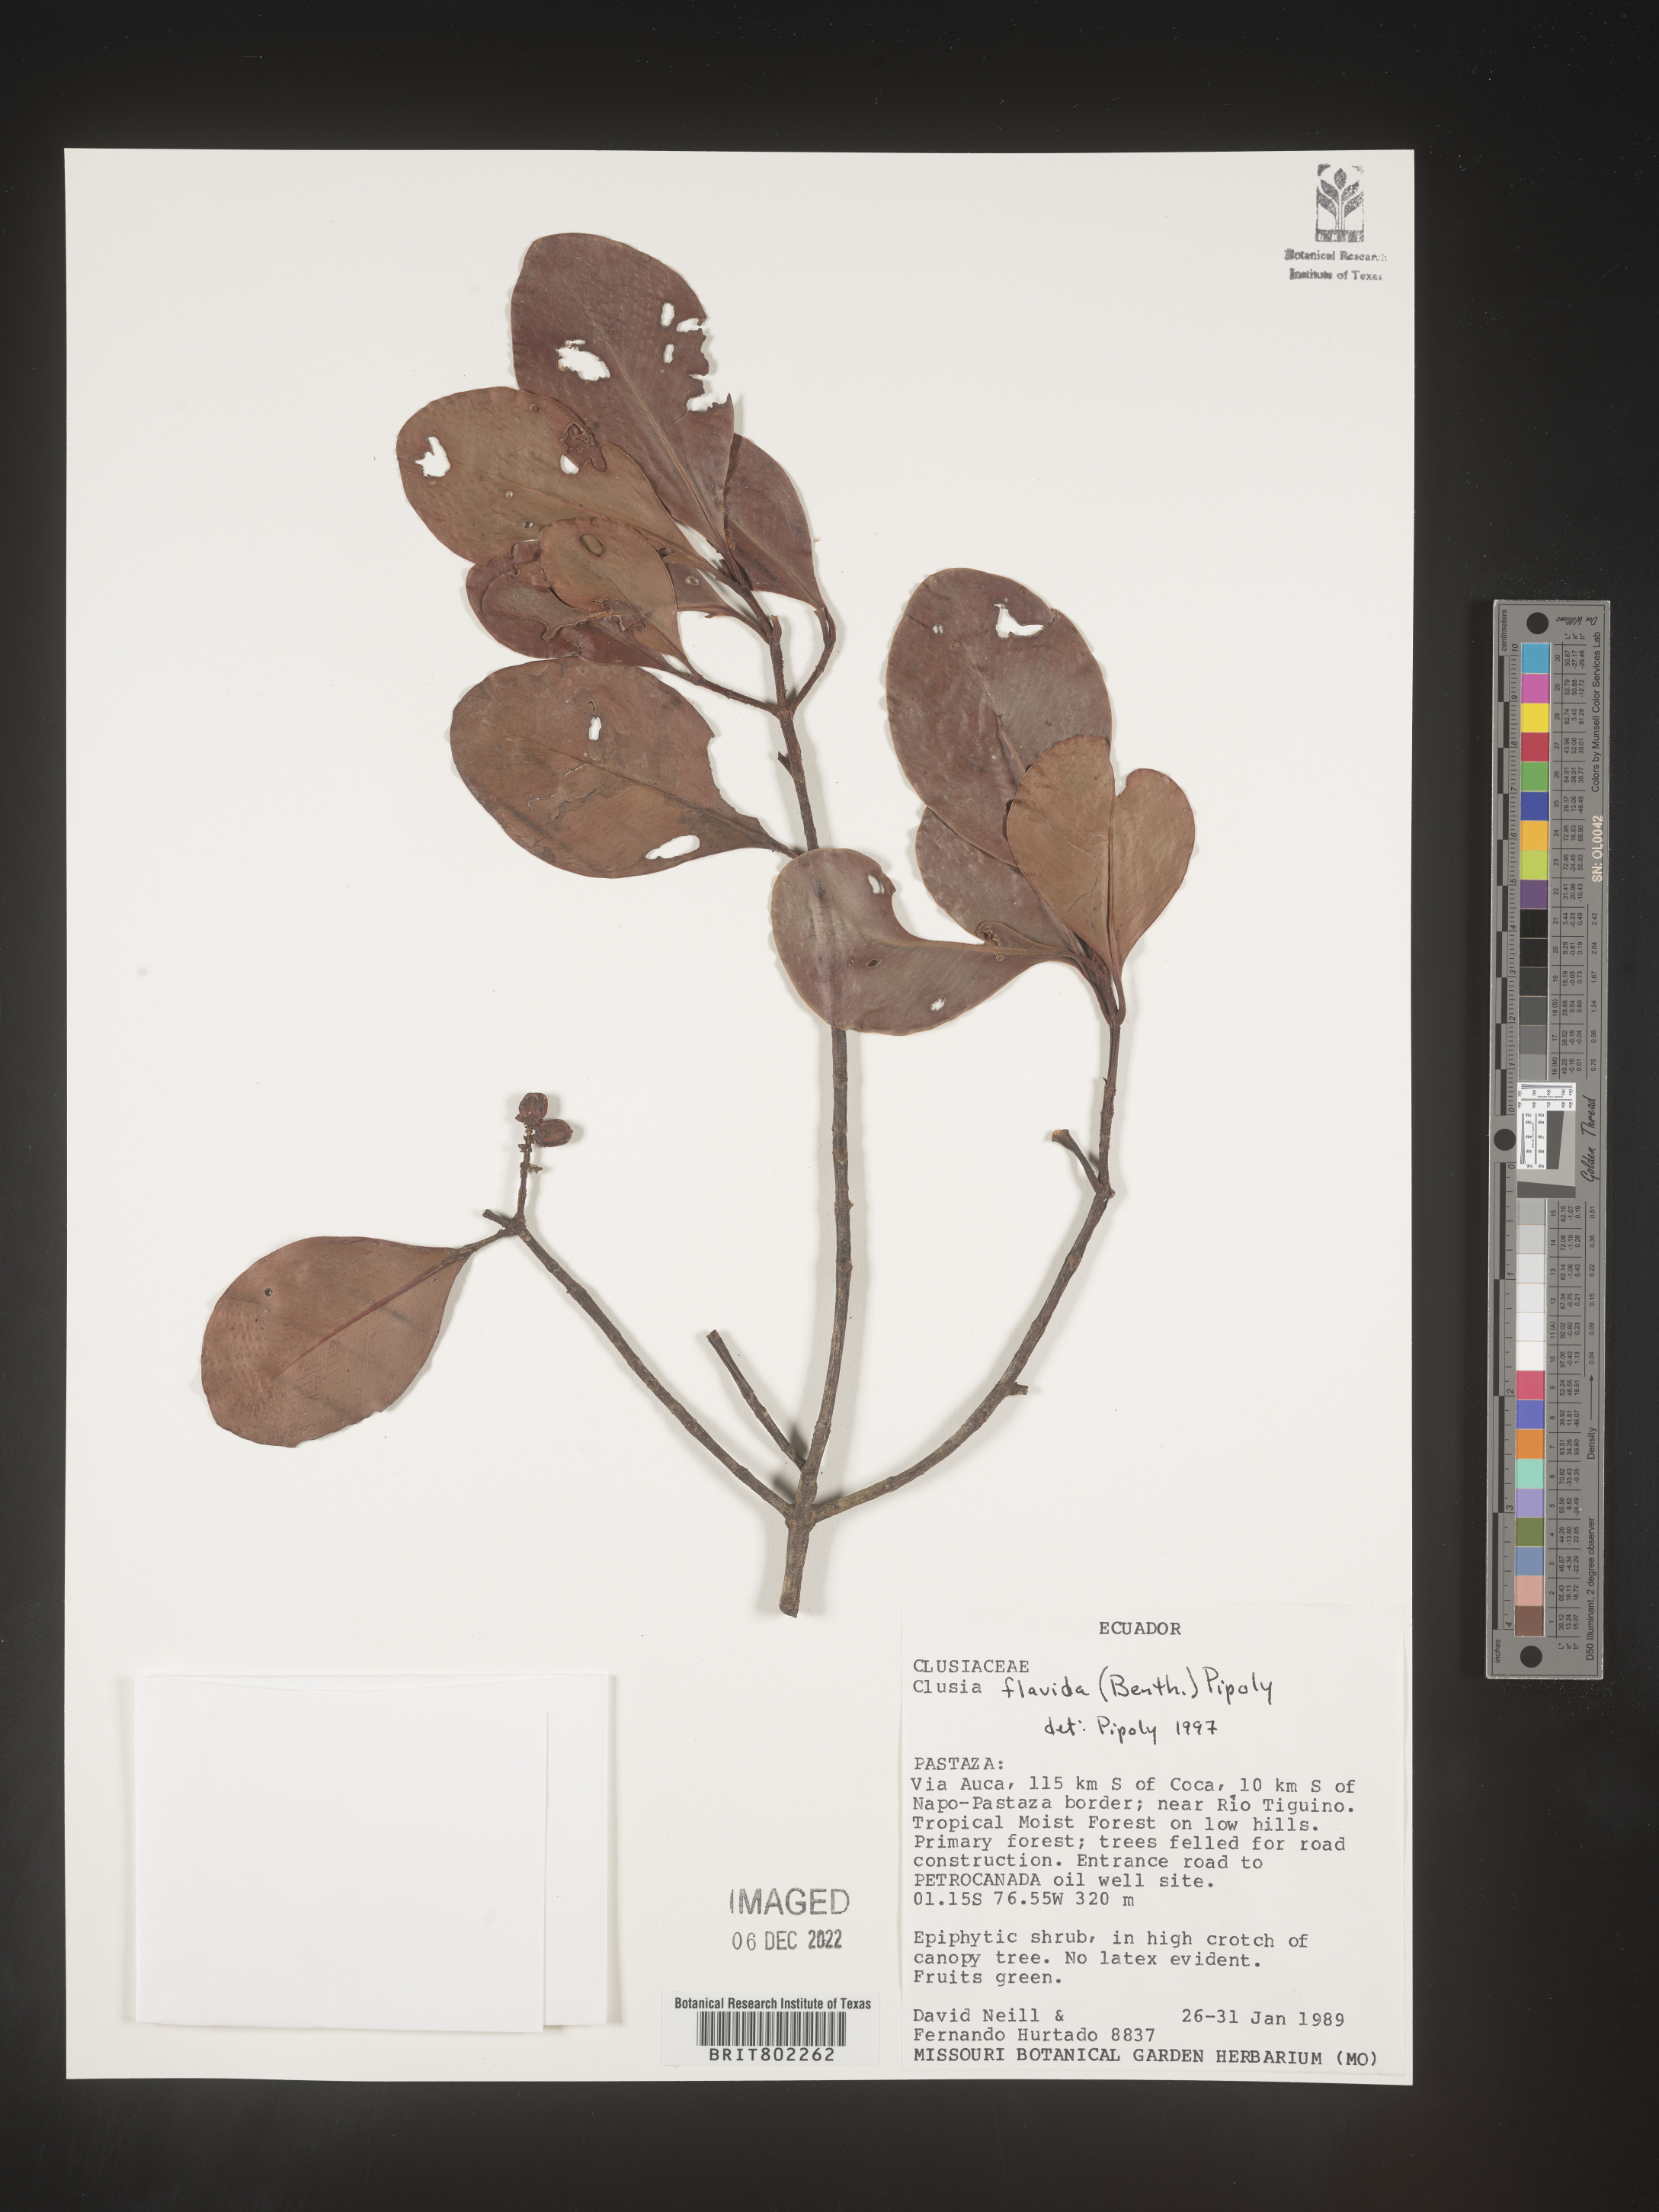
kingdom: Plantae
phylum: Tracheophyta
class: Magnoliopsida
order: Malpighiales
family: Clusiaceae
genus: Clusia
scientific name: Clusia flavida
